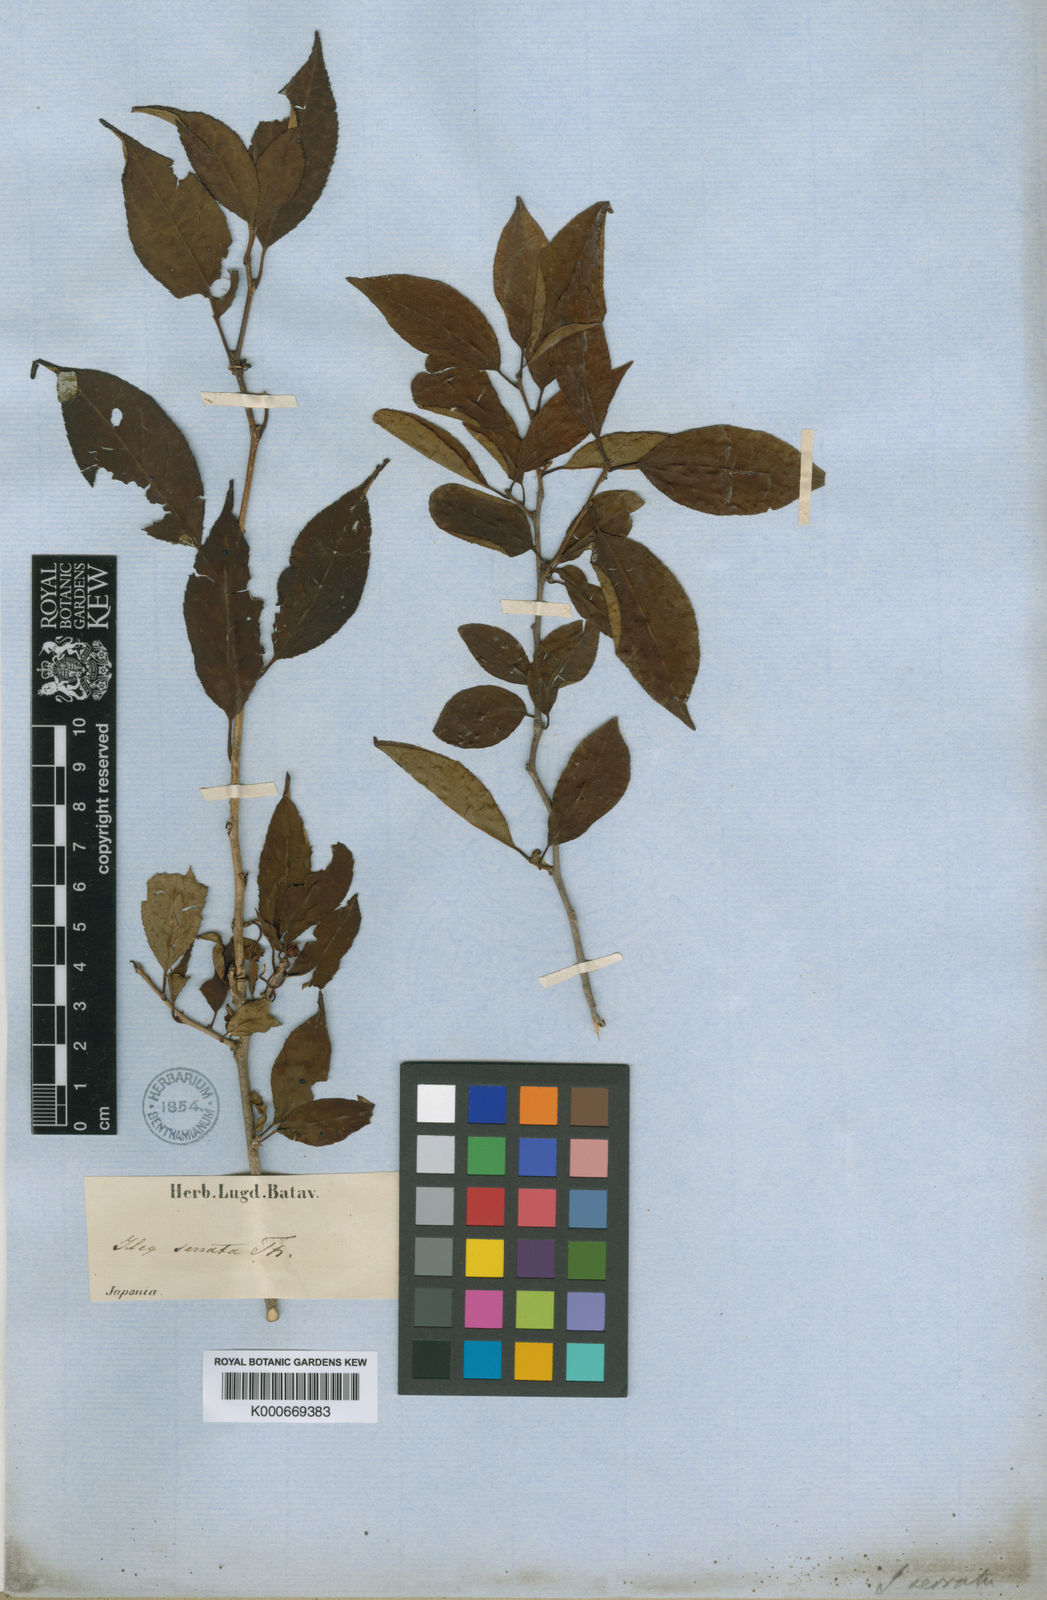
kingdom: Plantae
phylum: Tracheophyta
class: Magnoliopsida
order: Aquifoliales
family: Aquifoliaceae
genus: Ilex
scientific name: Ilex serrata
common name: Japanese winterberry
